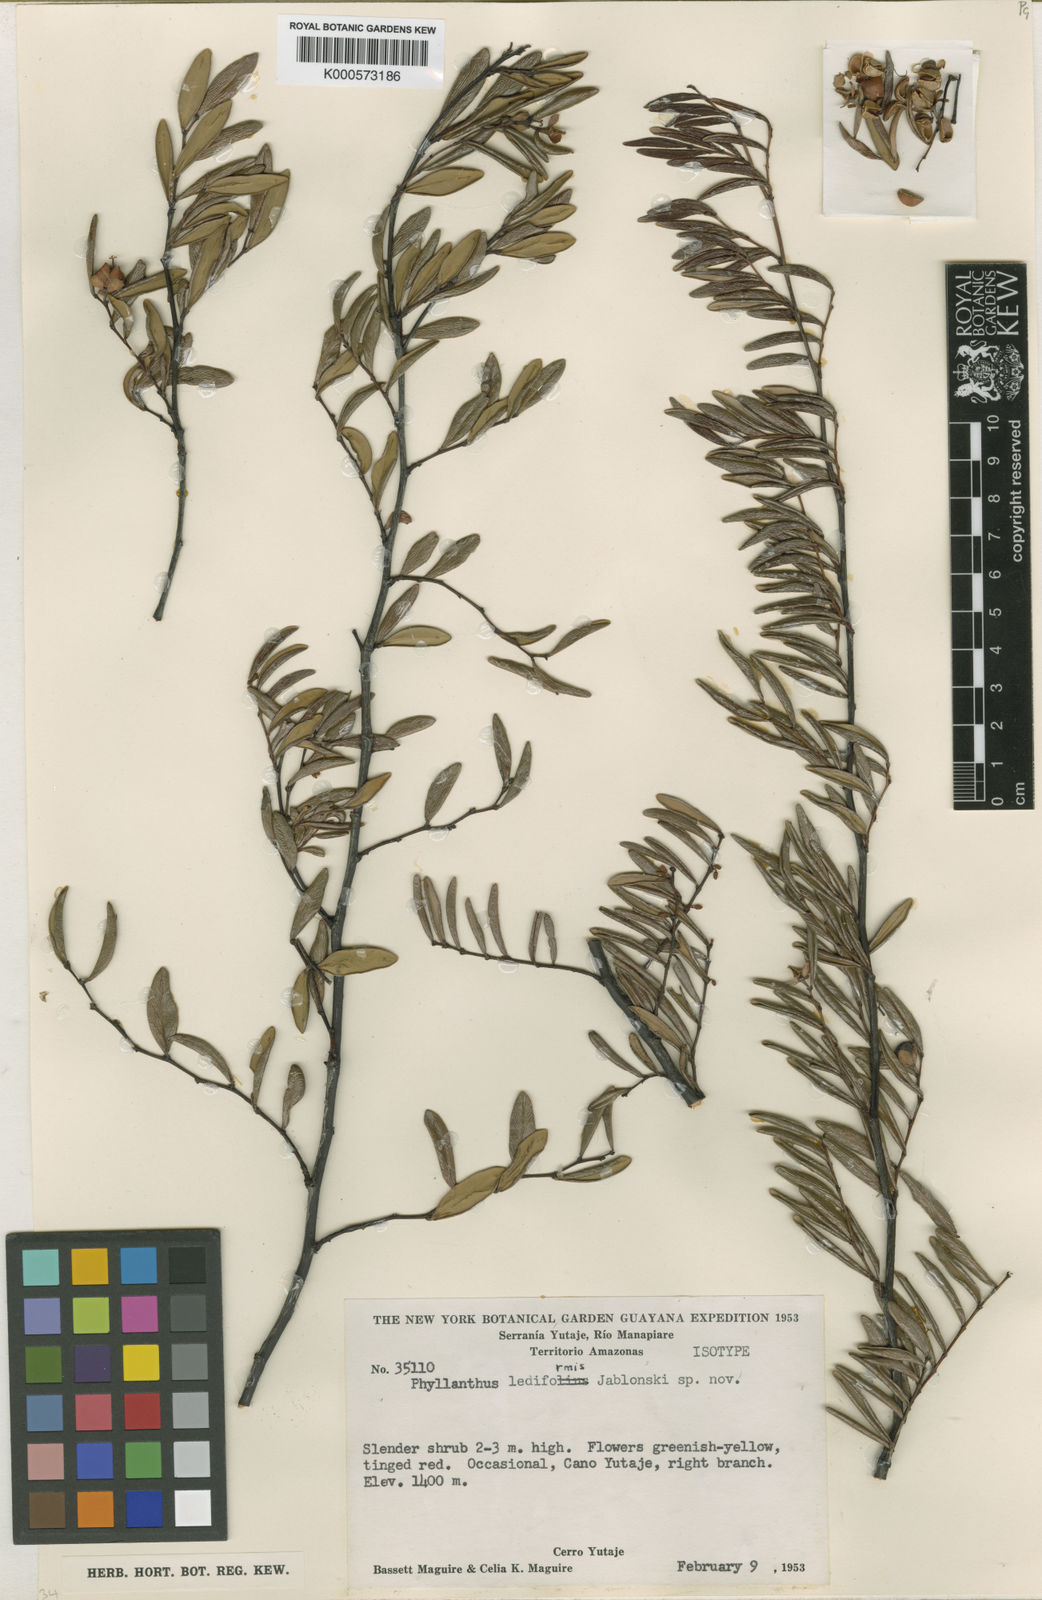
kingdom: Plantae
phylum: Tracheophyta
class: Magnoliopsida
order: Malpighiales
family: Phyllanthaceae
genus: Phyllanthus
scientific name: Phyllanthus lediformis
